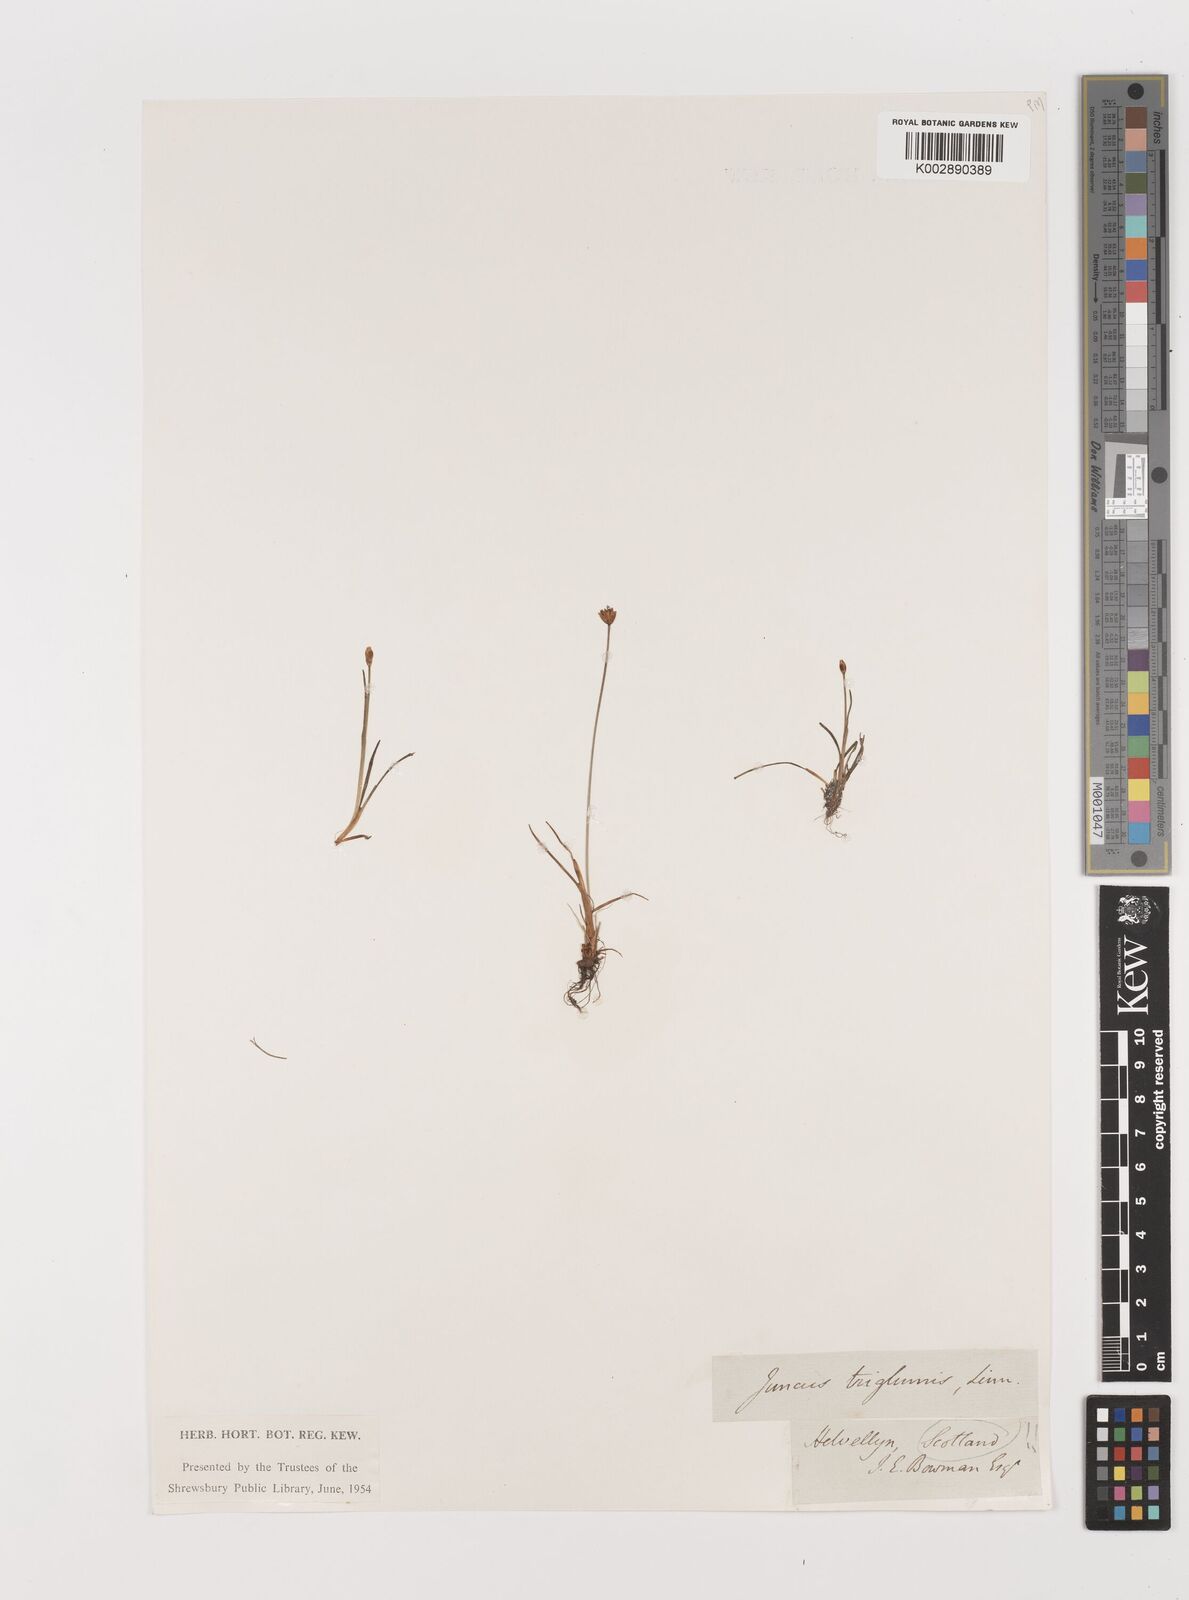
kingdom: Plantae
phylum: Tracheophyta
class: Liliopsida
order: Poales
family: Juncaceae
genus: Juncus
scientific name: Juncus triglumis
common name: Three-flowered rush
